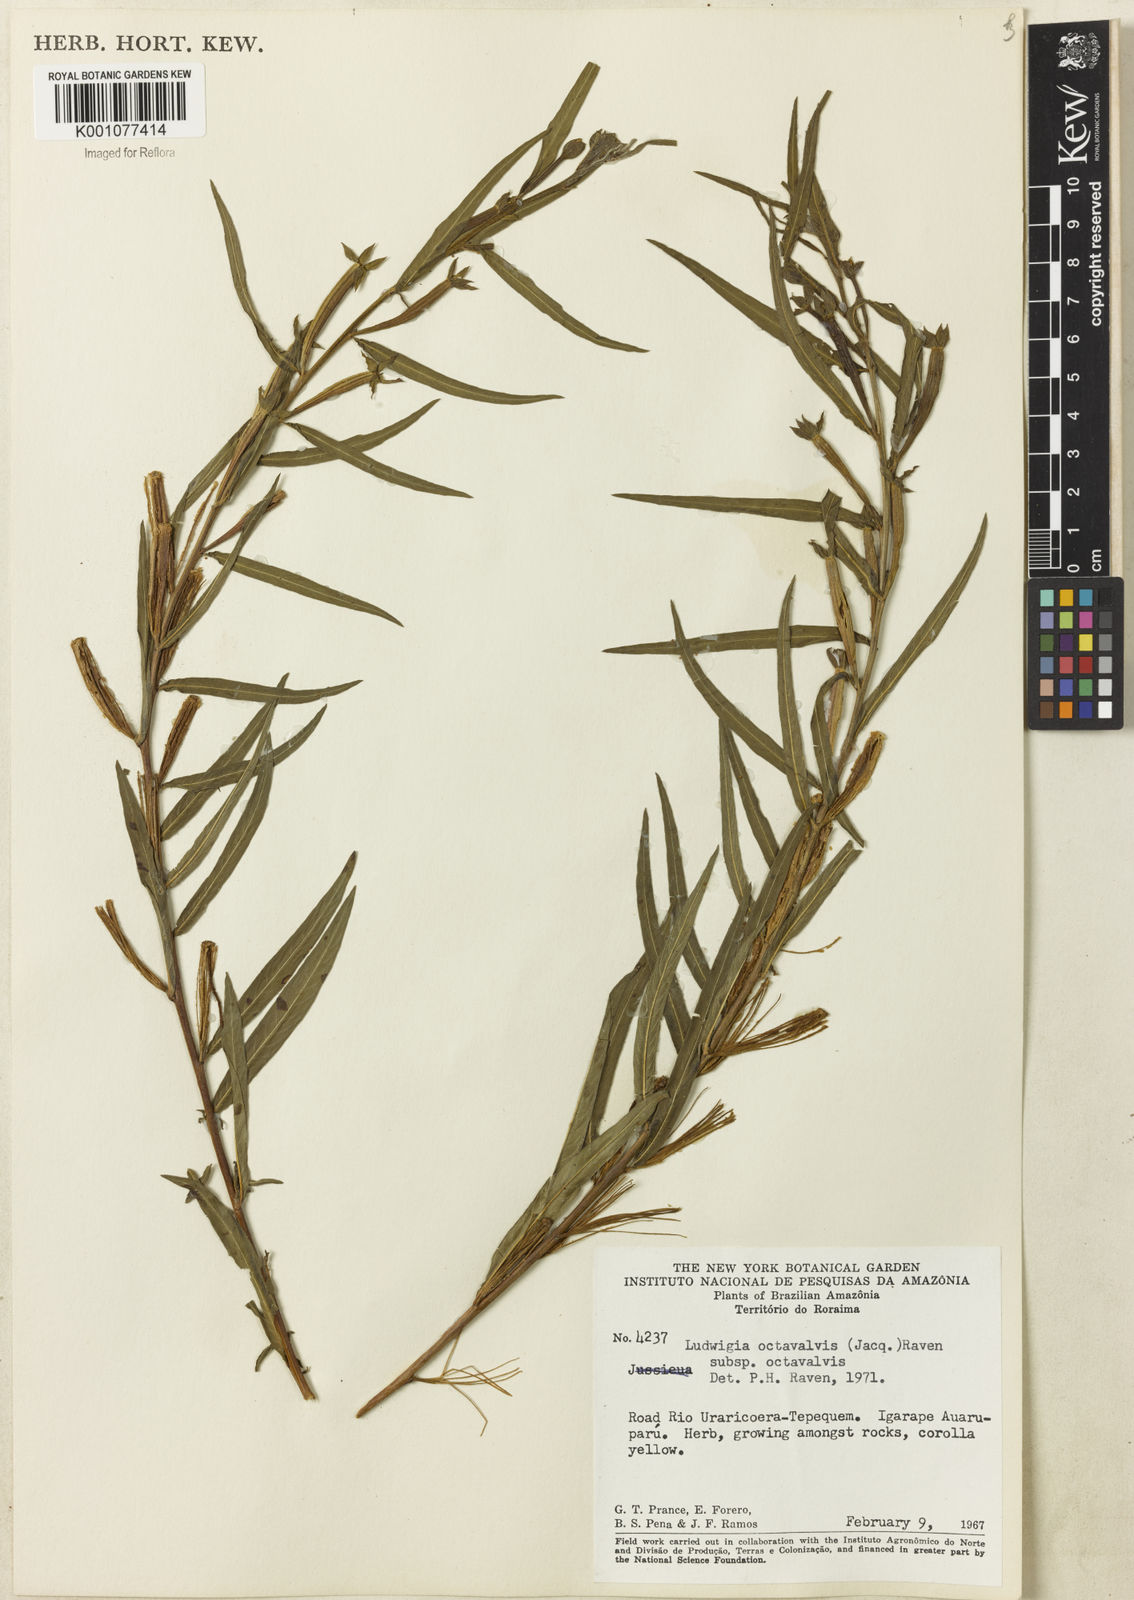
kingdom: Plantae
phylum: Tracheophyta
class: Magnoliopsida
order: Myrtales
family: Onagraceae
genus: Ludwigia
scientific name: Ludwigia octovalvis
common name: Water-primrose
